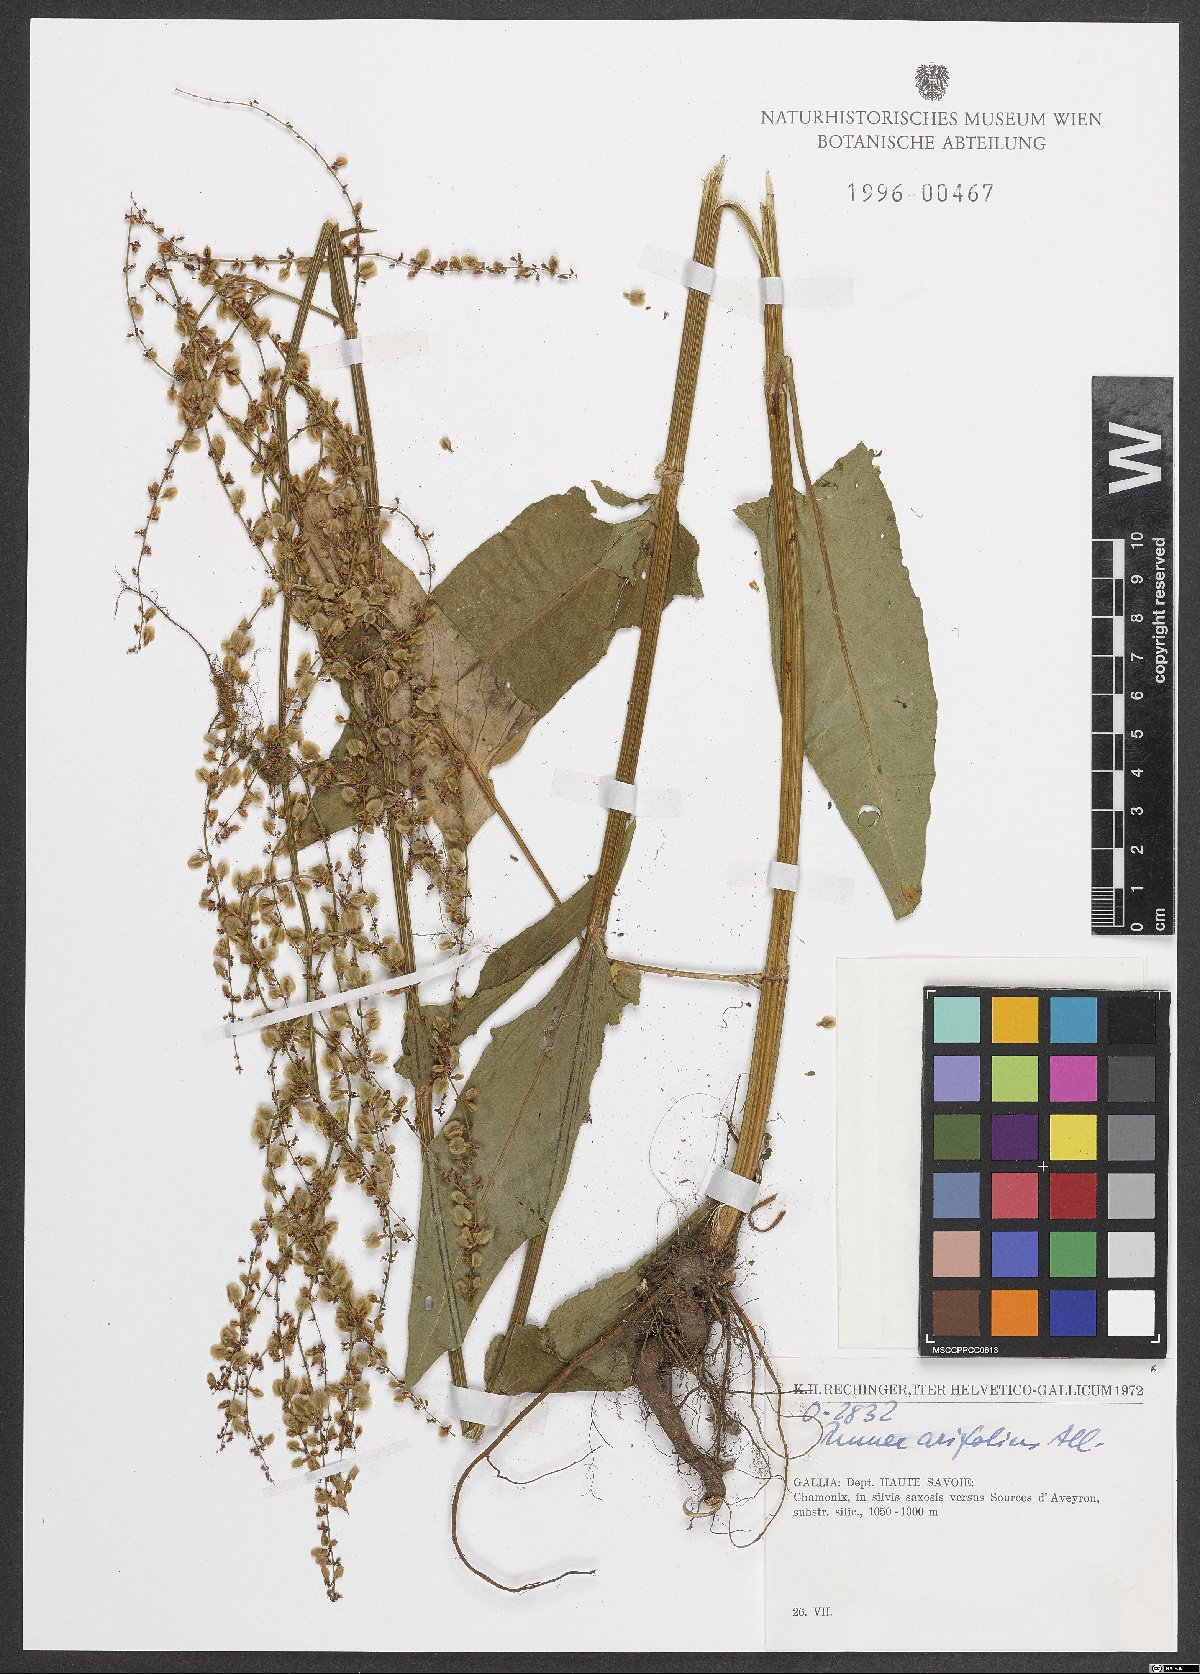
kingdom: Plantae
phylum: Tracheophyta
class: Magnoliopsida
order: Caryophyllales
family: Polygonaceae
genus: Rumex
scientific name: Rumex arifolius
